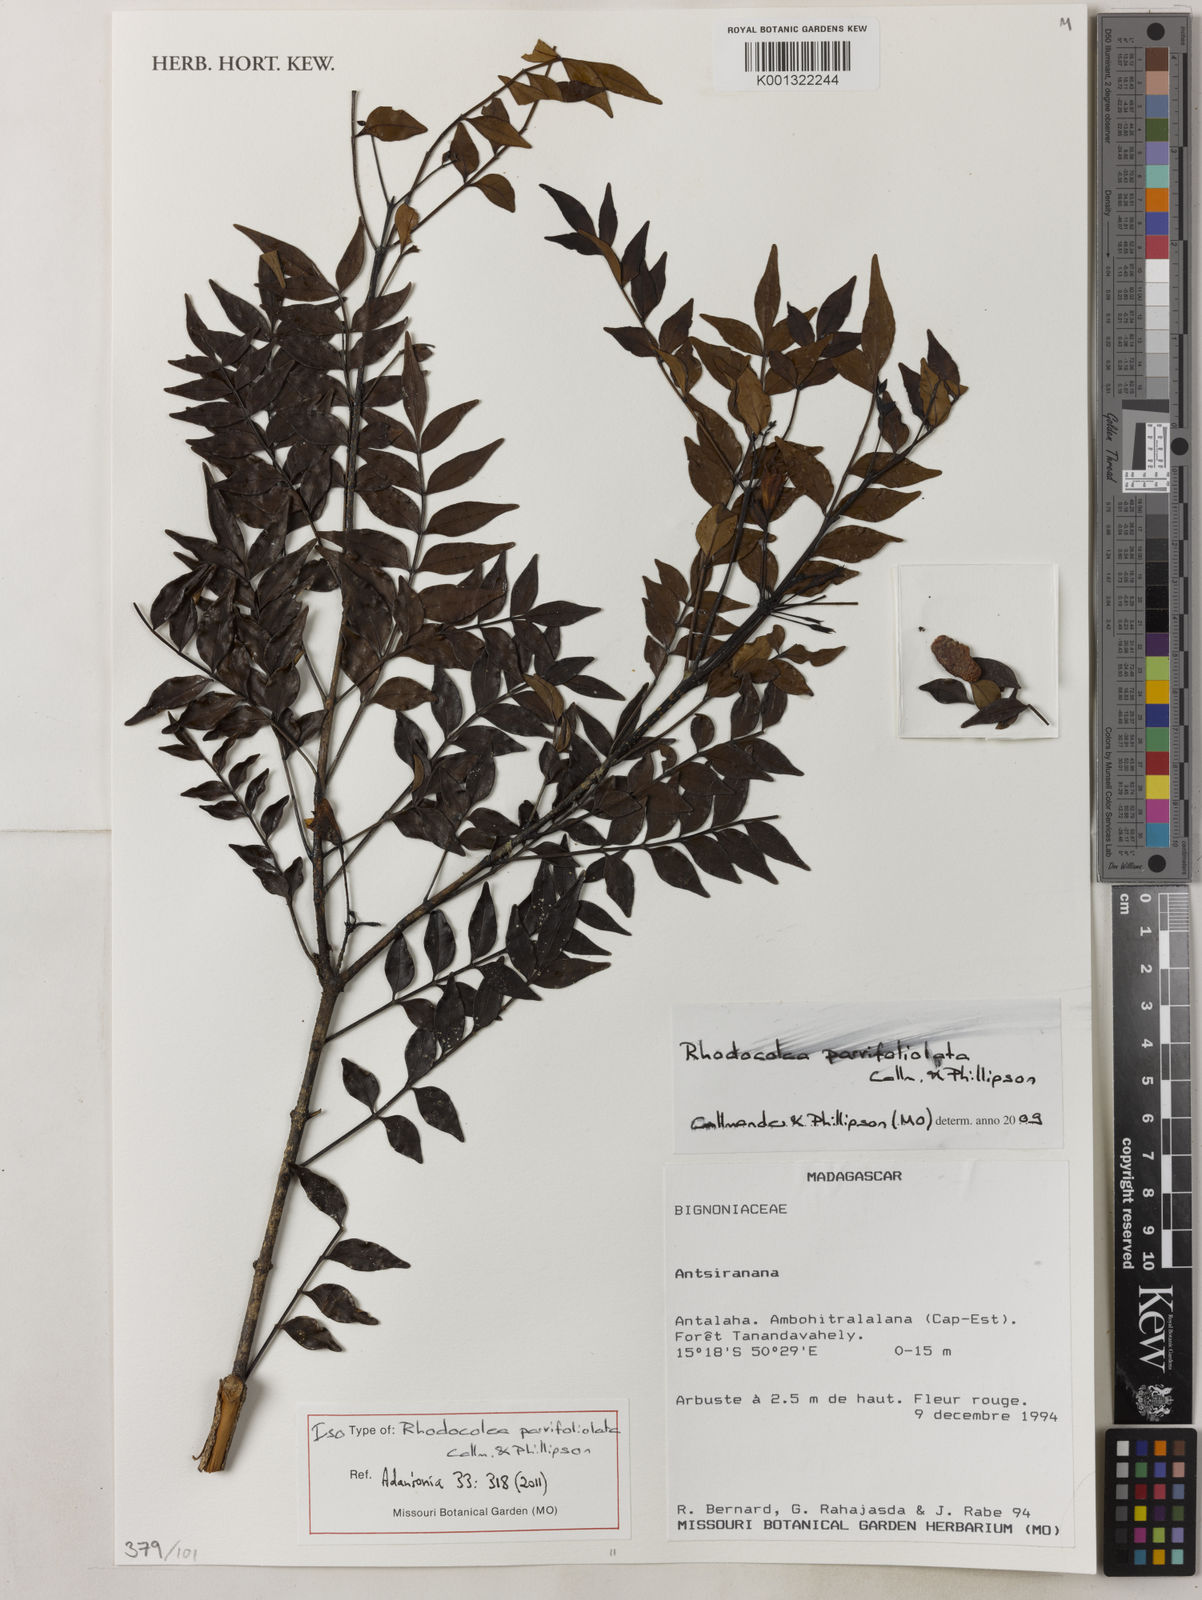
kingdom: Plantae
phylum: Tracheophyta
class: Magnoliopsida
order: Lamiales
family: Bignoniaceae
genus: Rhodocolea
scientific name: Rhodocolea parvifoliolata
